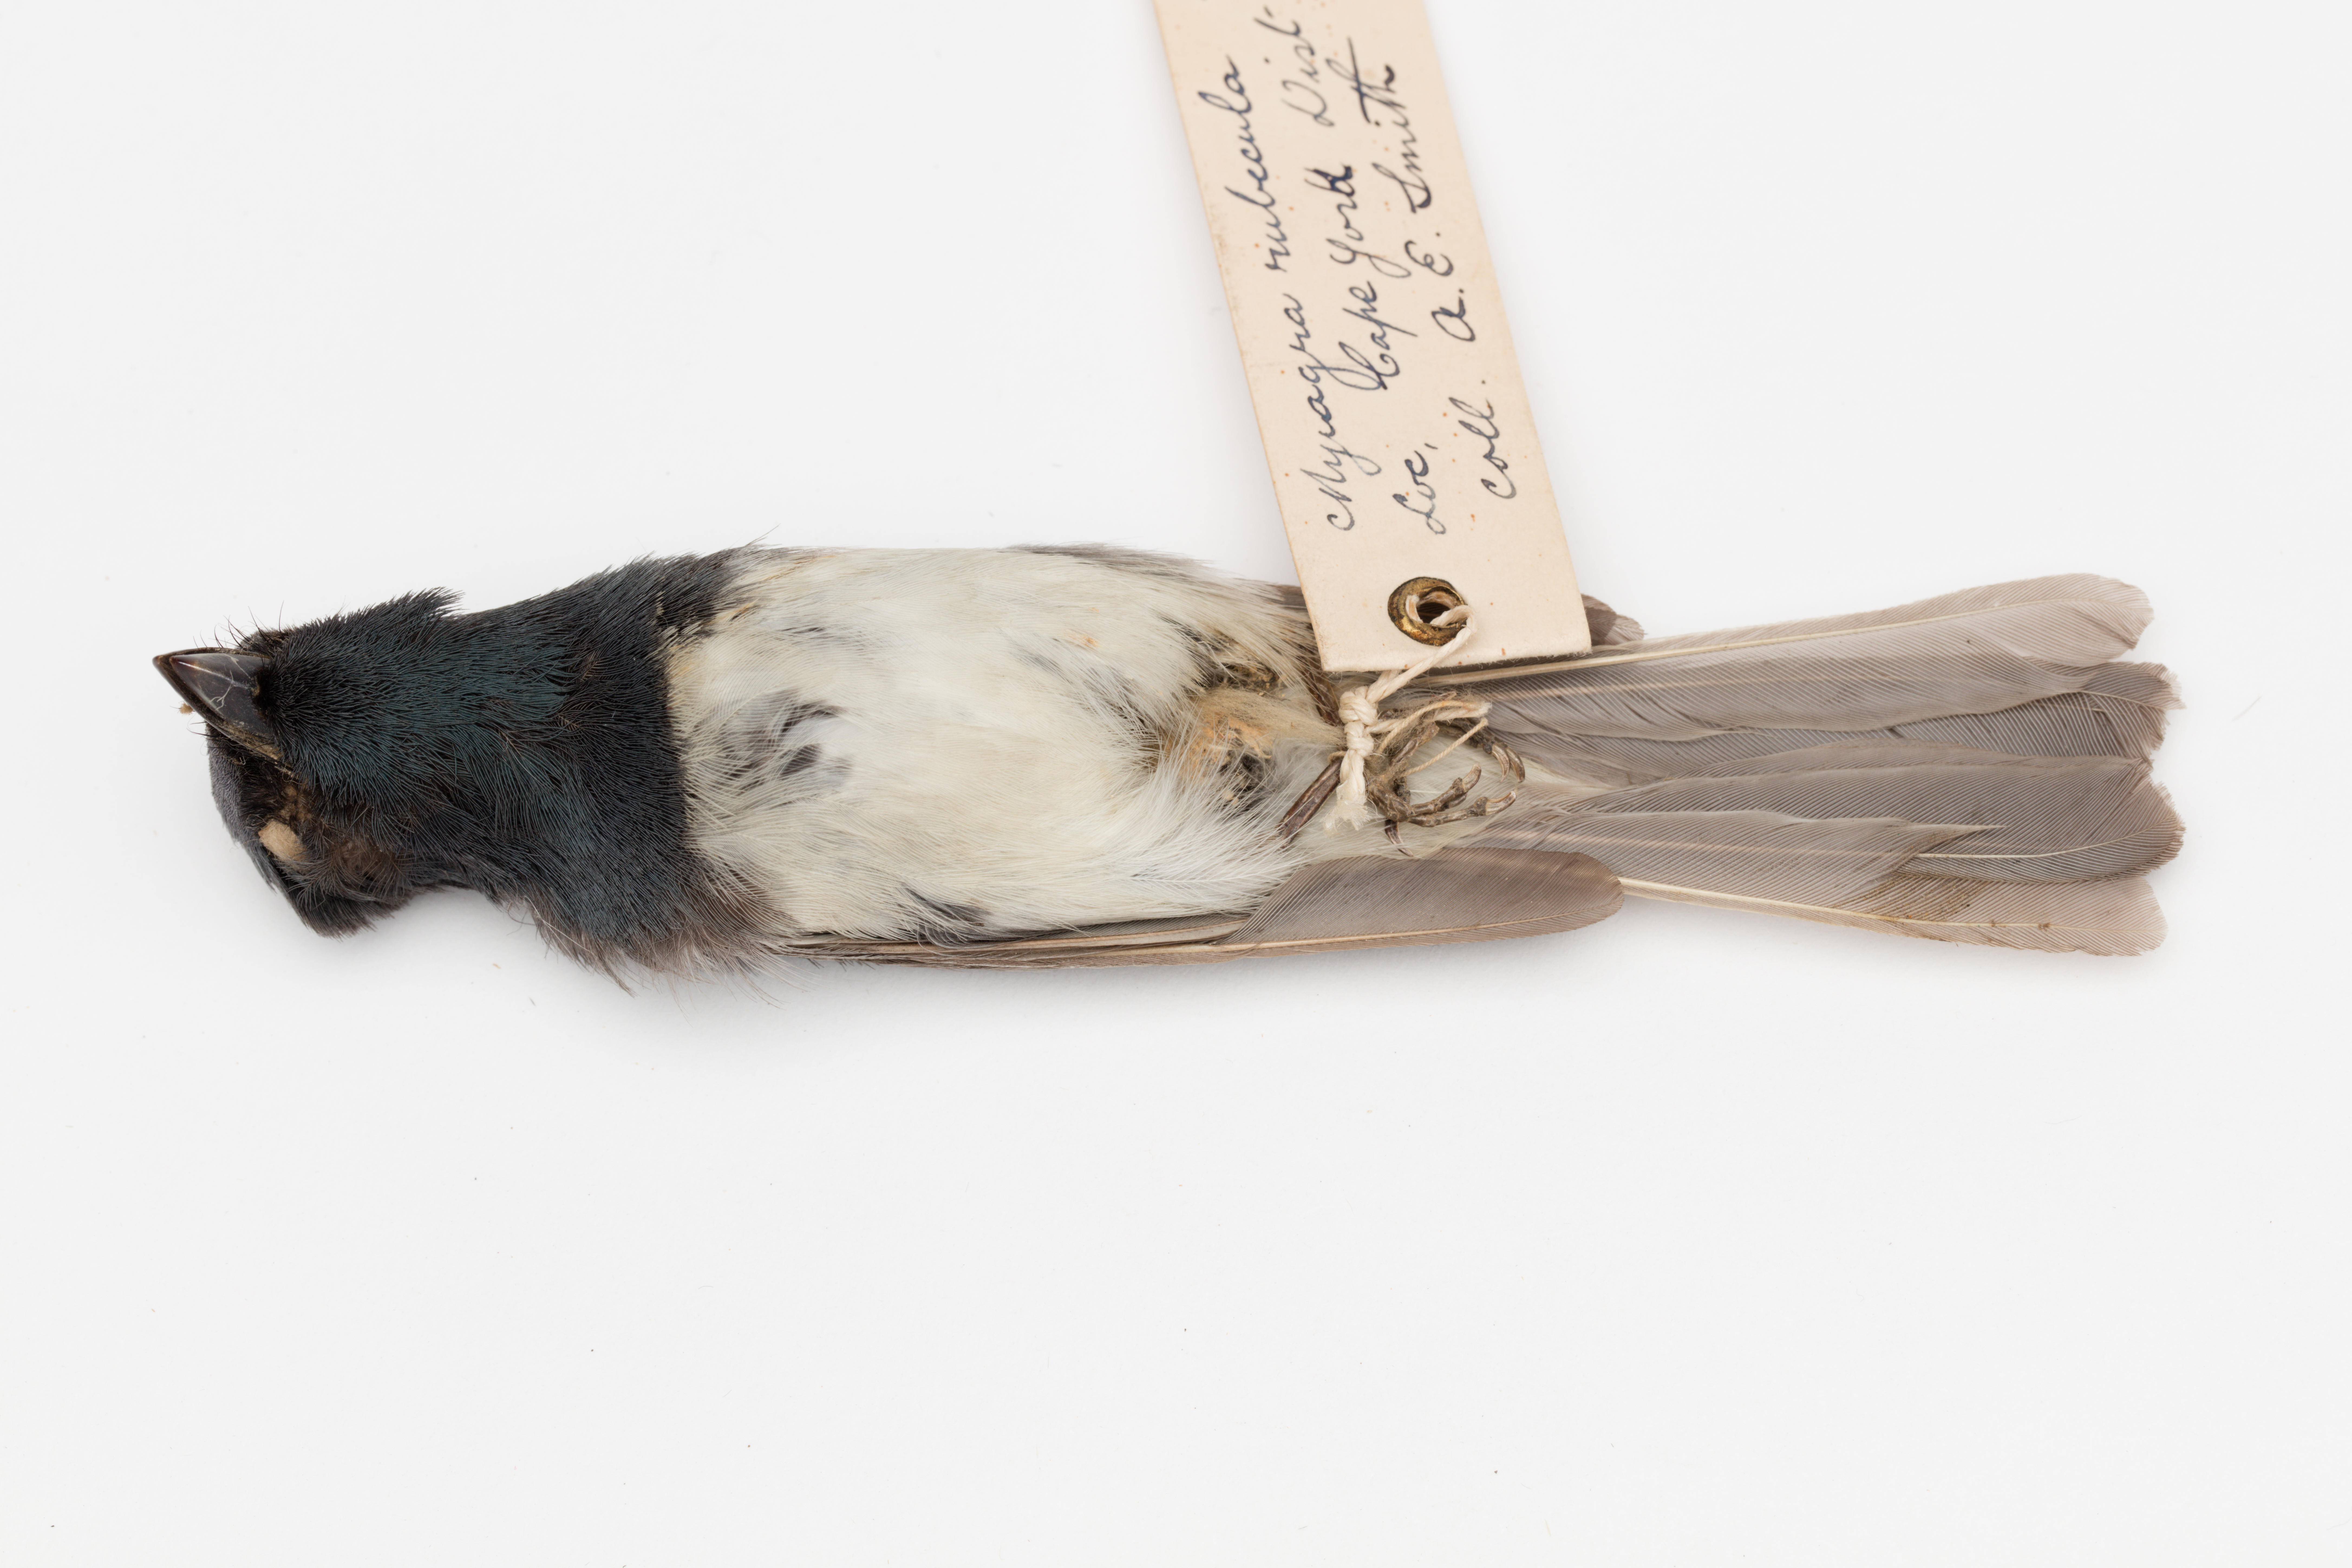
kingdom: Animalia
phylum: Chordata
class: Aves
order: Passeriformes
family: Monarchidae
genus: Myiagra
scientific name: Myiagra rubecula
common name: Leaden flycatcher
